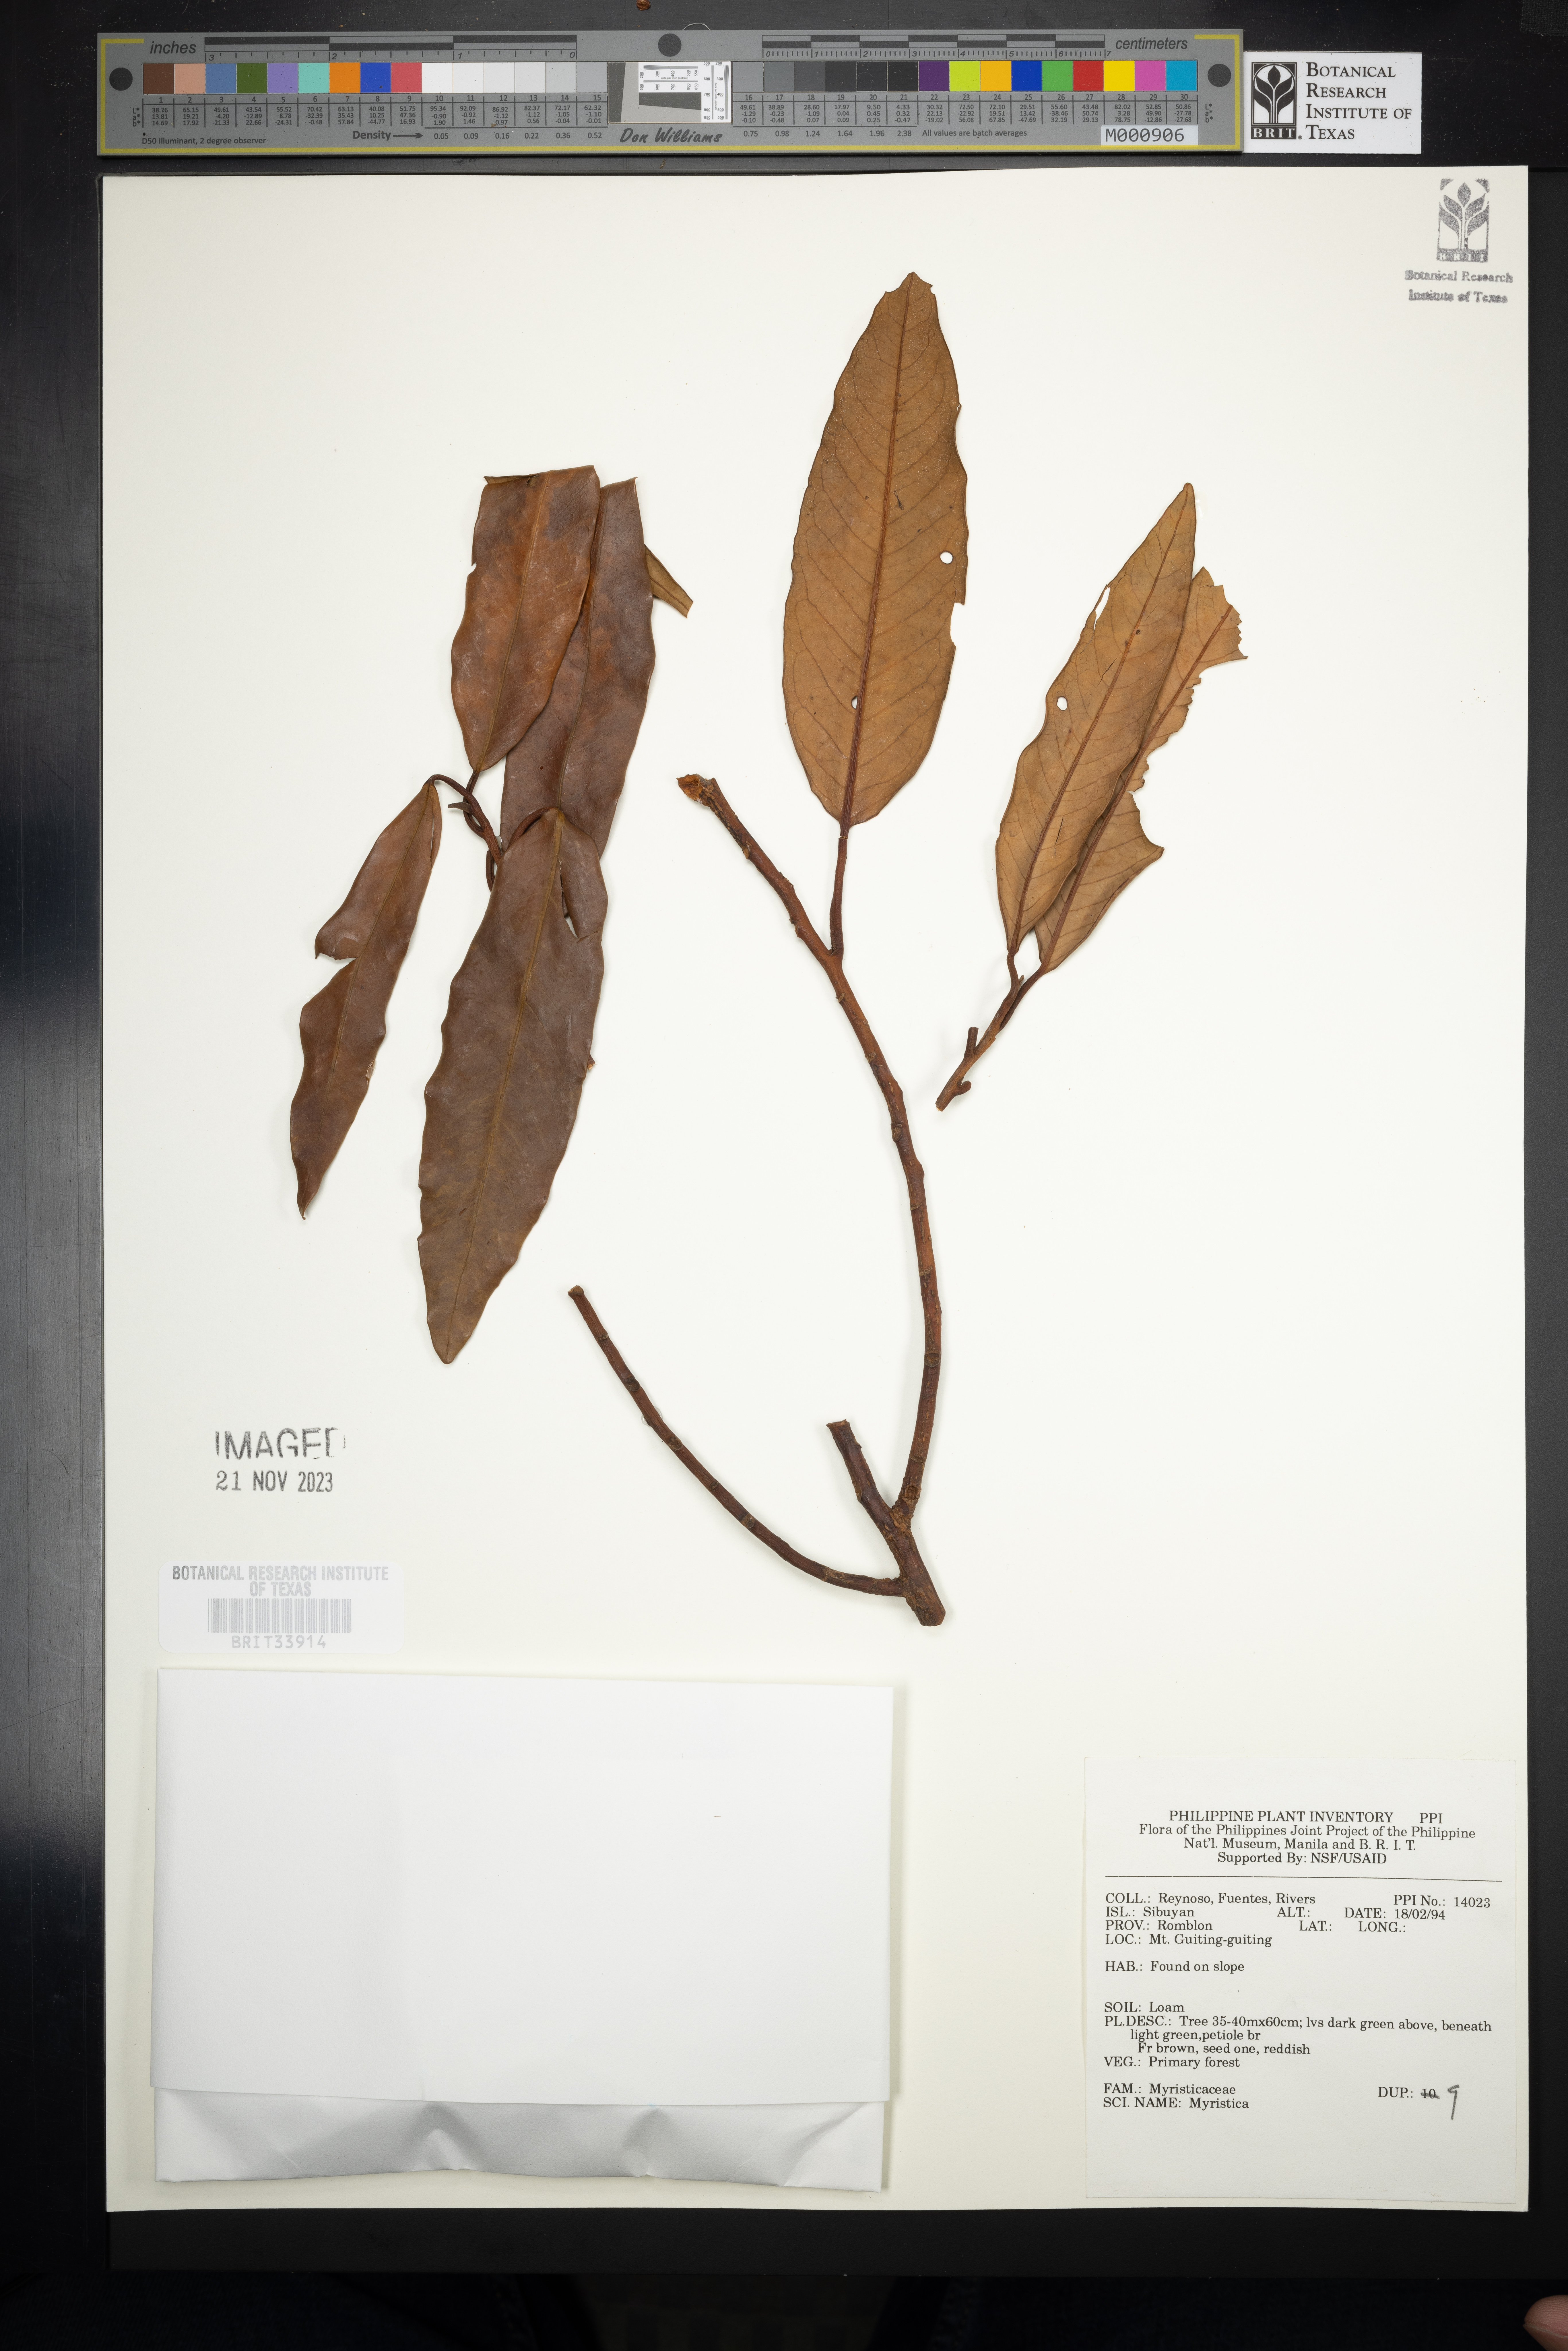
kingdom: Plantae
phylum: Tracheophyta
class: Magnoliopsida
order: Magnoliales
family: Myristicaceae
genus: Myristica
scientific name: Myristica
